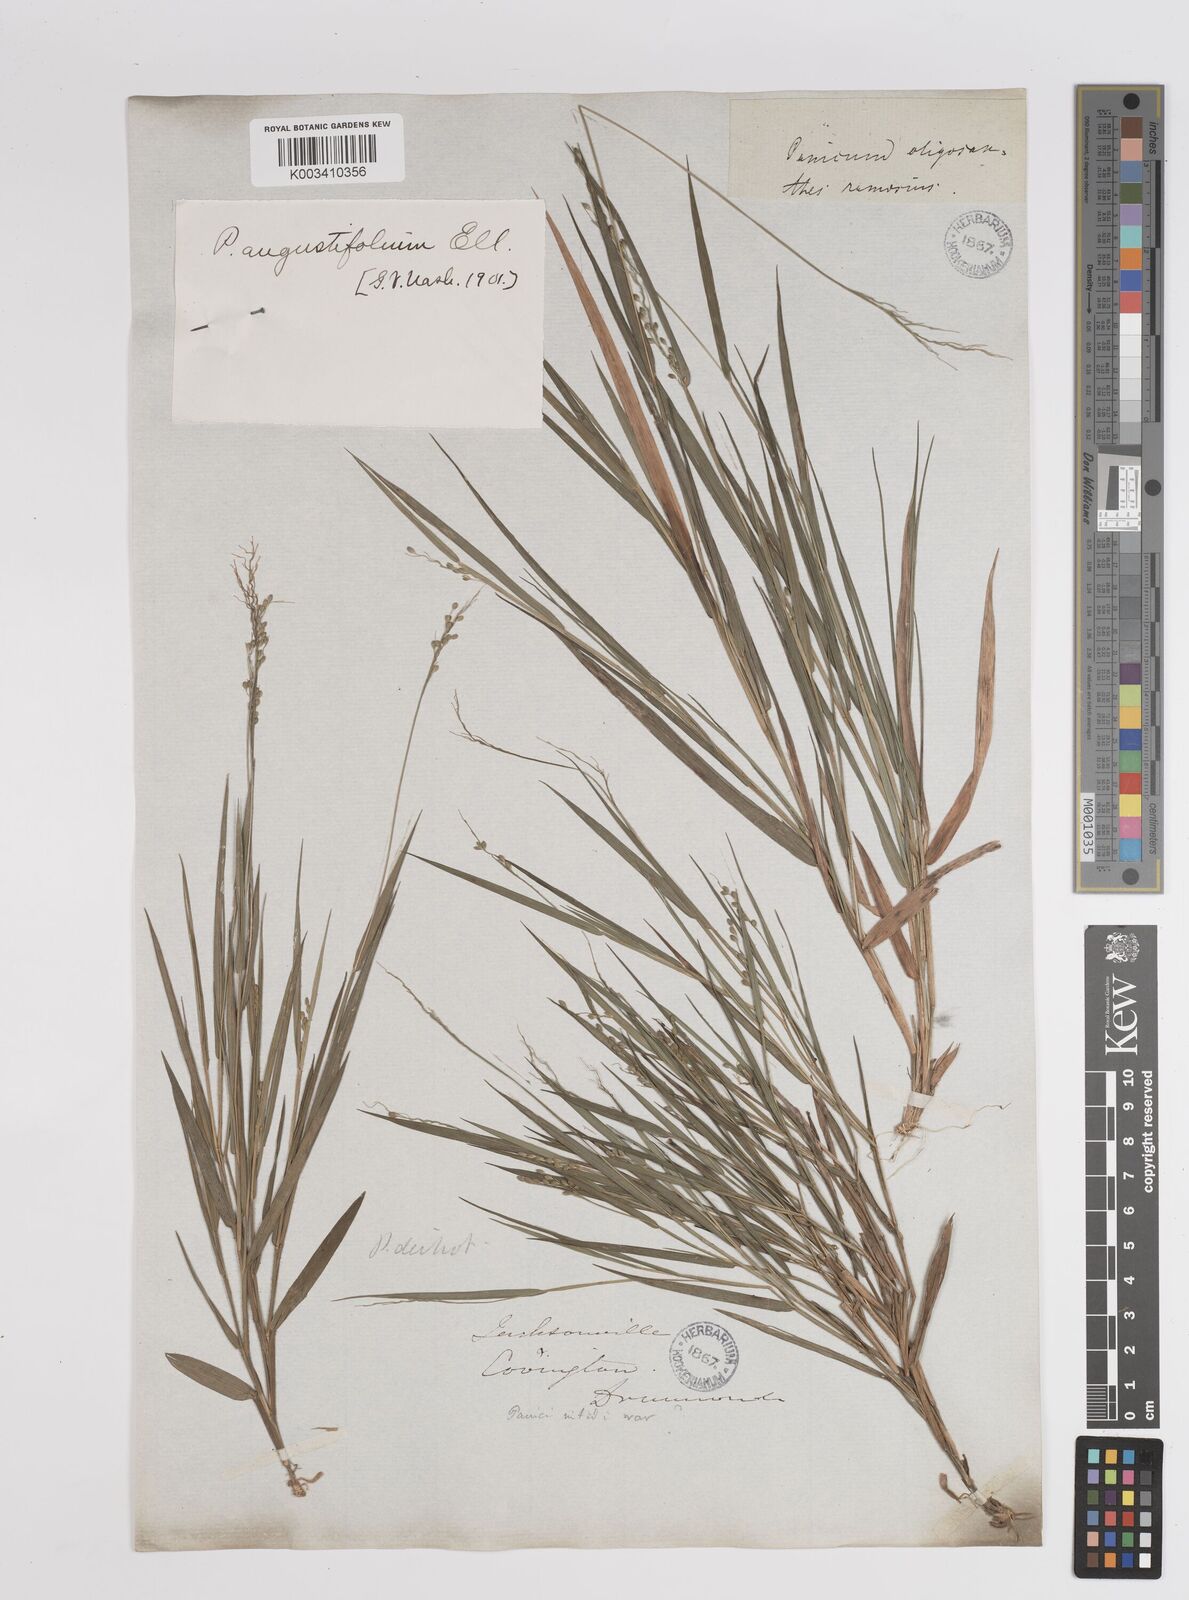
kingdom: Plantae
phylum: Tracheophyta
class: Liliopsida
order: Poales
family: Poaceae
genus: Dichanthelium
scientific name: Dichanthelium angustifolium
